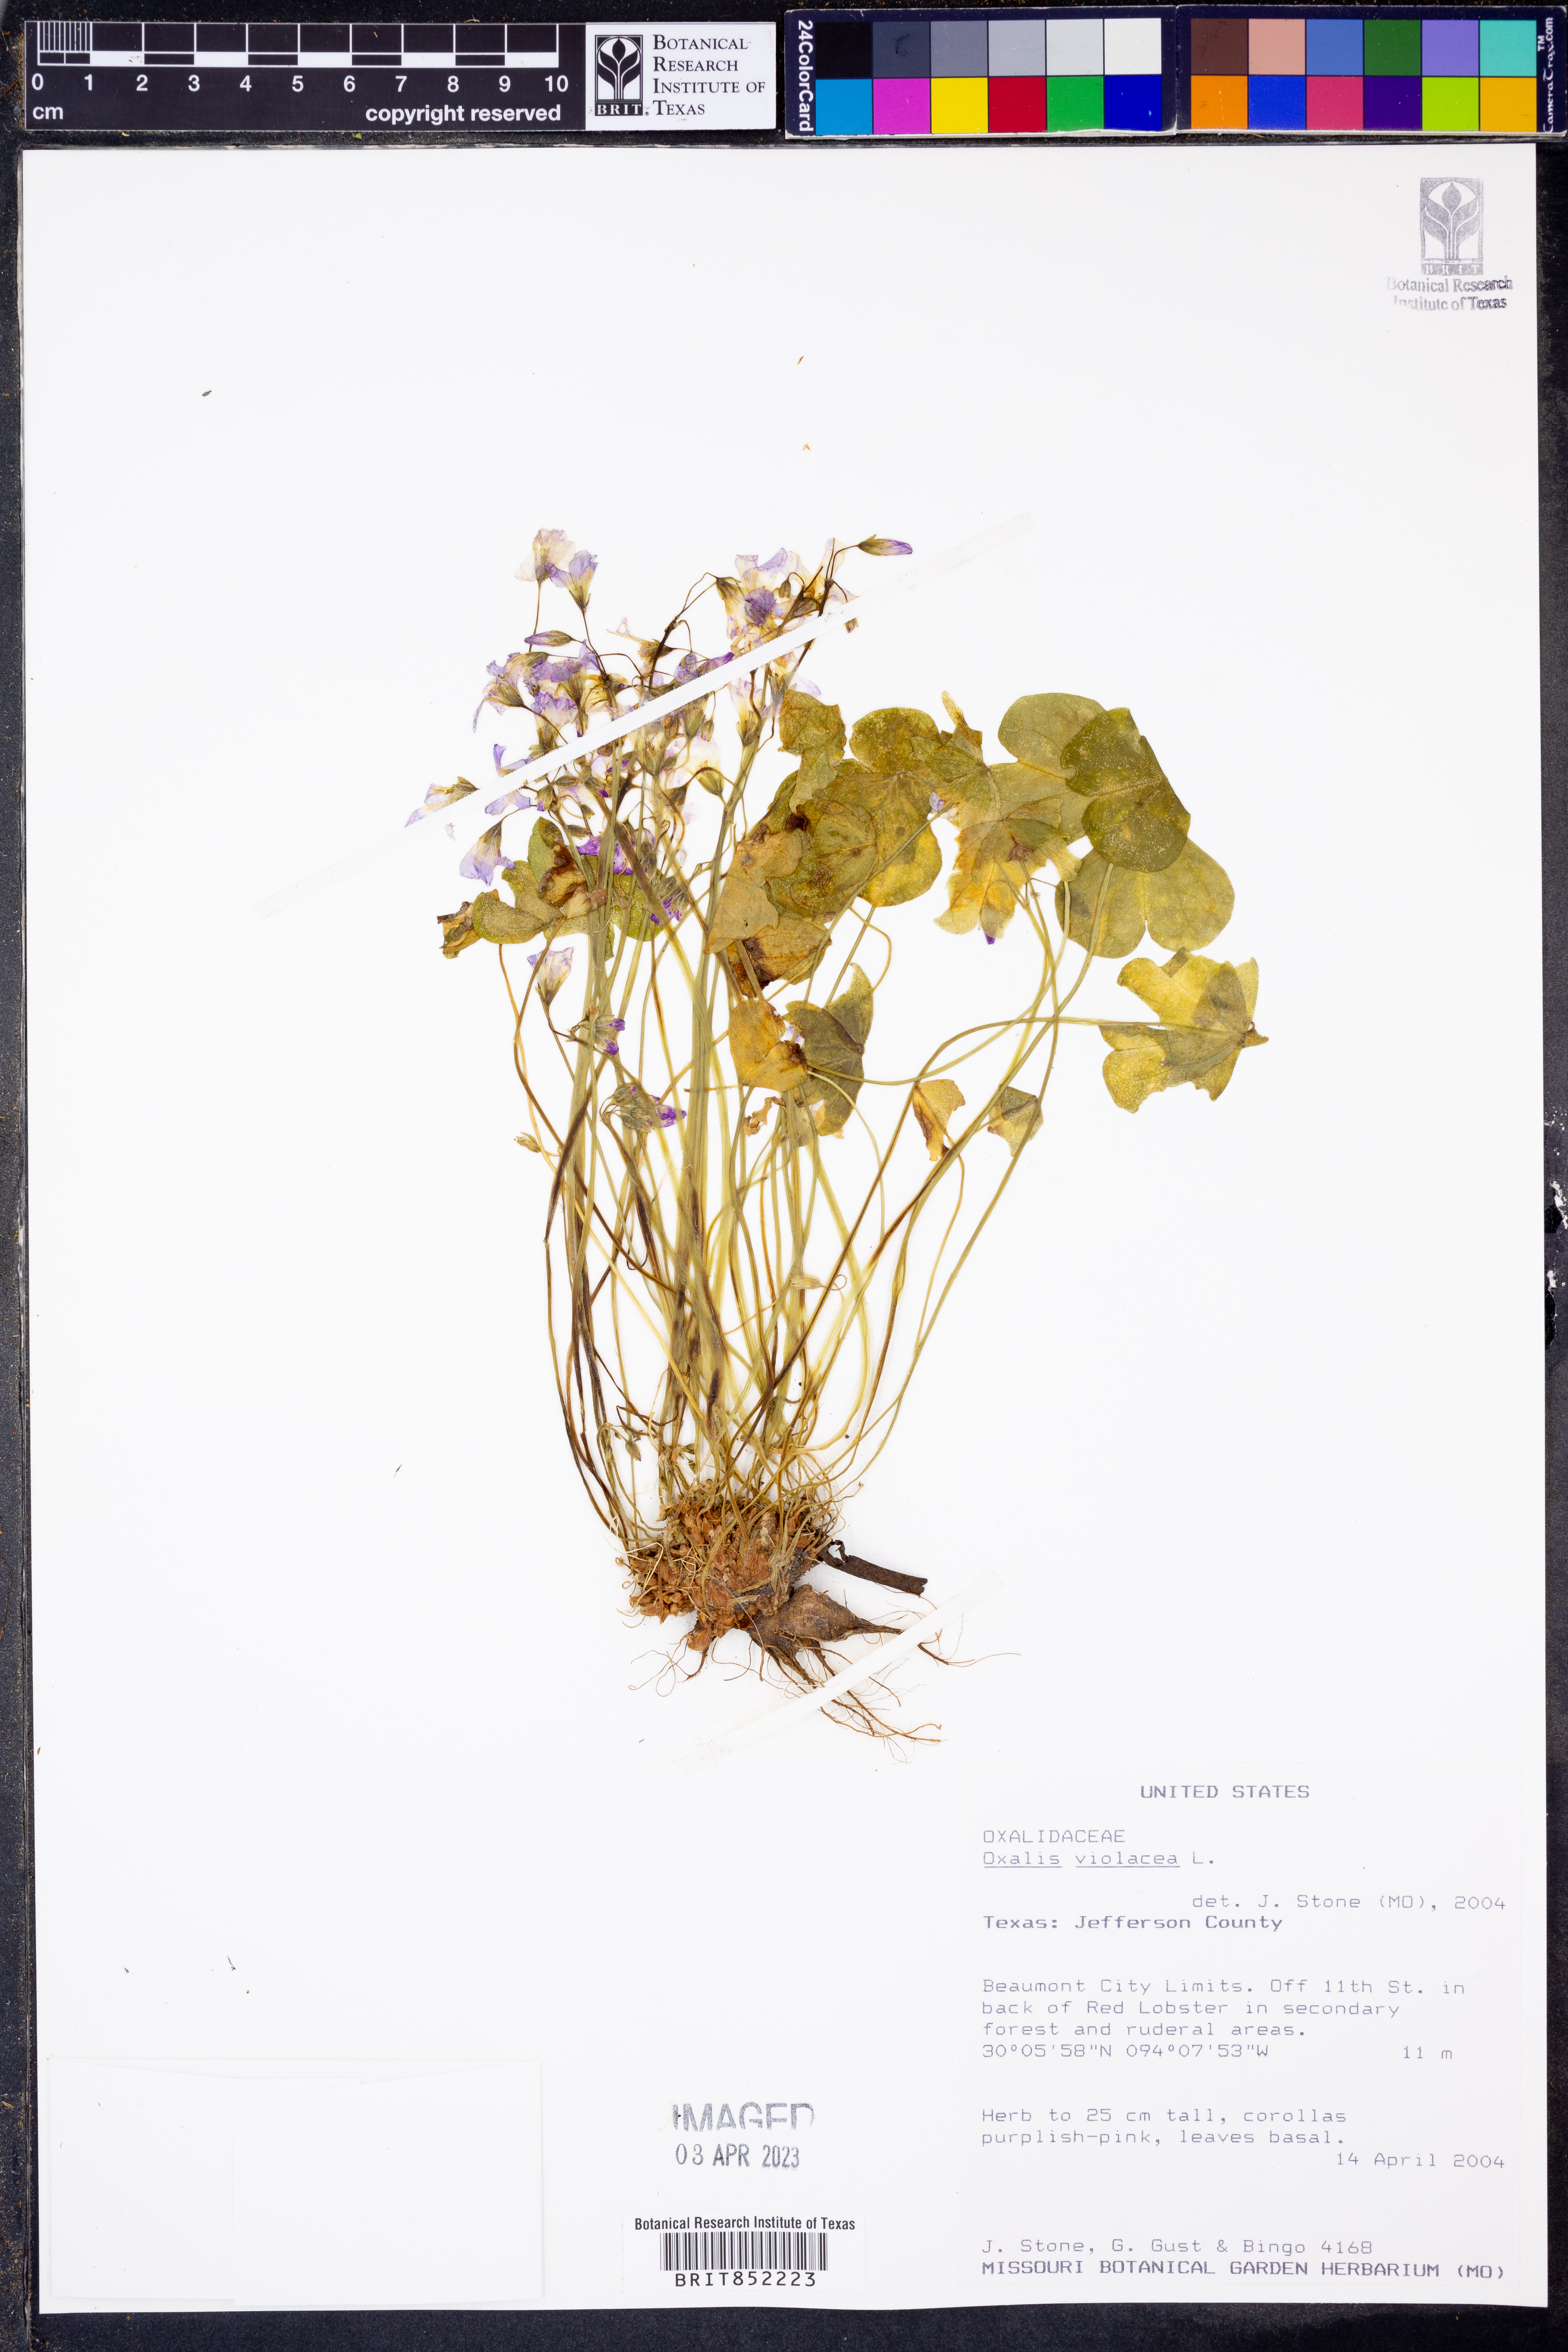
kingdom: Plantae
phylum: Tracheophyta
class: Magnoliopsida
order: Oxalidales
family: Oxalidaceae
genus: Oxalis
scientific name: Oxalis violacea
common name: Violet wood-sorrel
